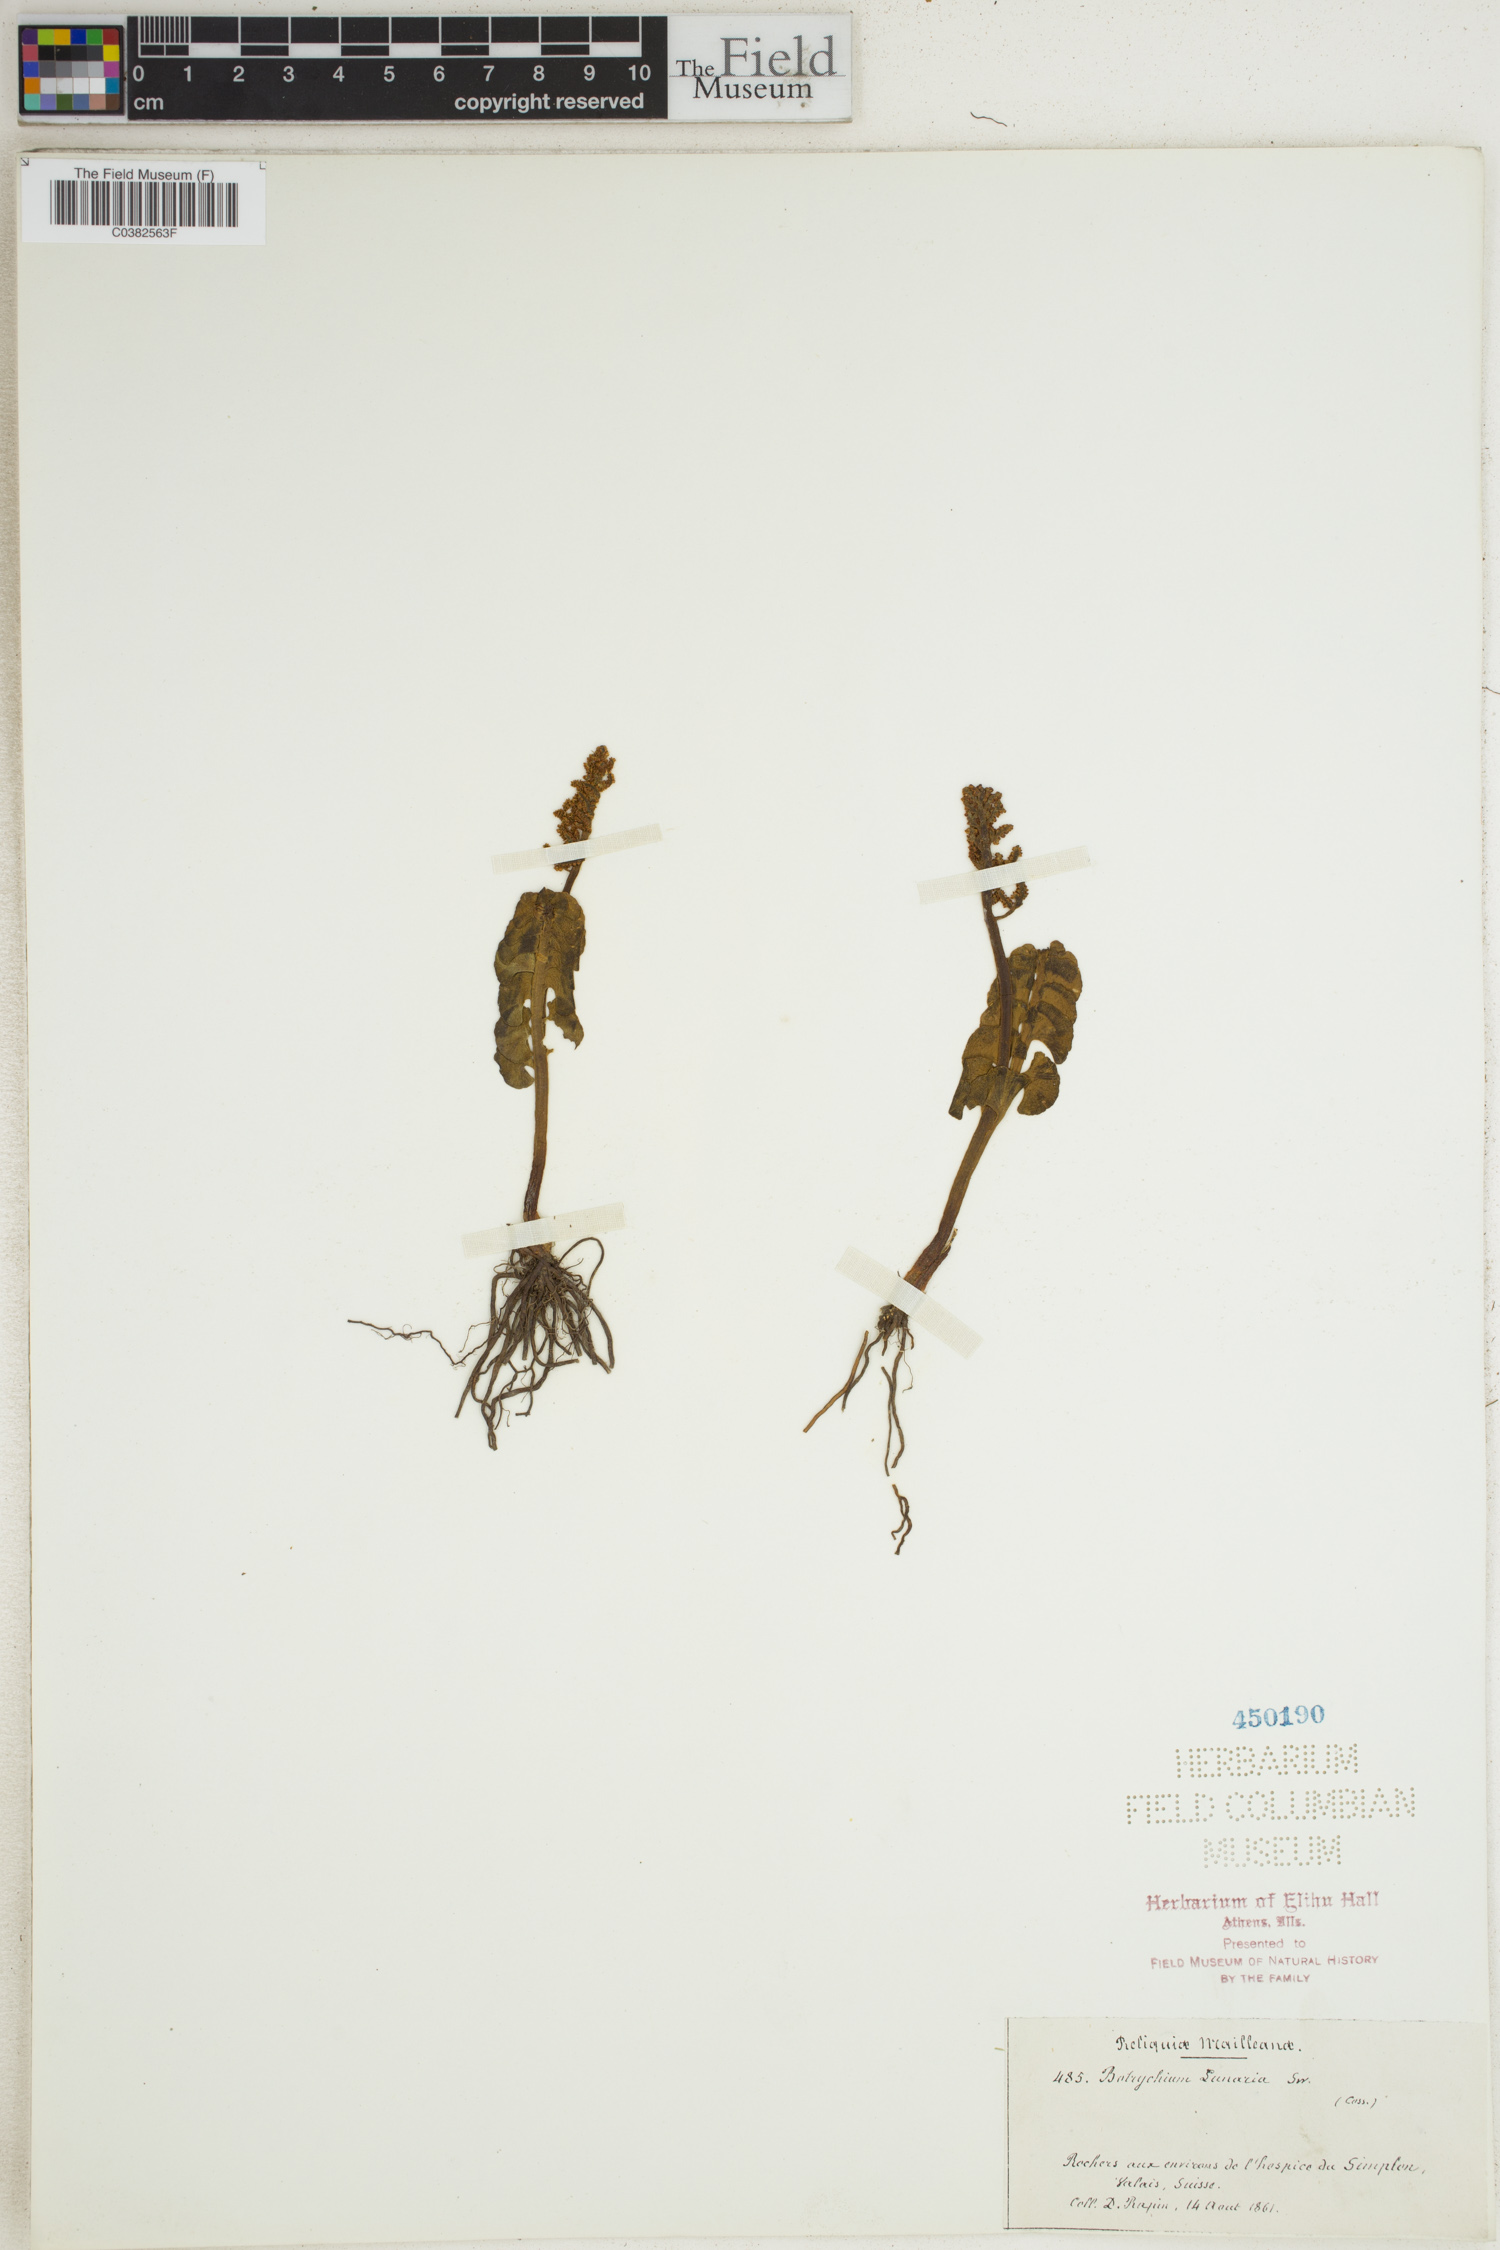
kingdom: Plantae
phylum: Tracheophyta
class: Polypodiopsida
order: Ophioglossales
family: Ophioglossaceae
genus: Botrychium
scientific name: Botrychium lunaria
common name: Moonwort
